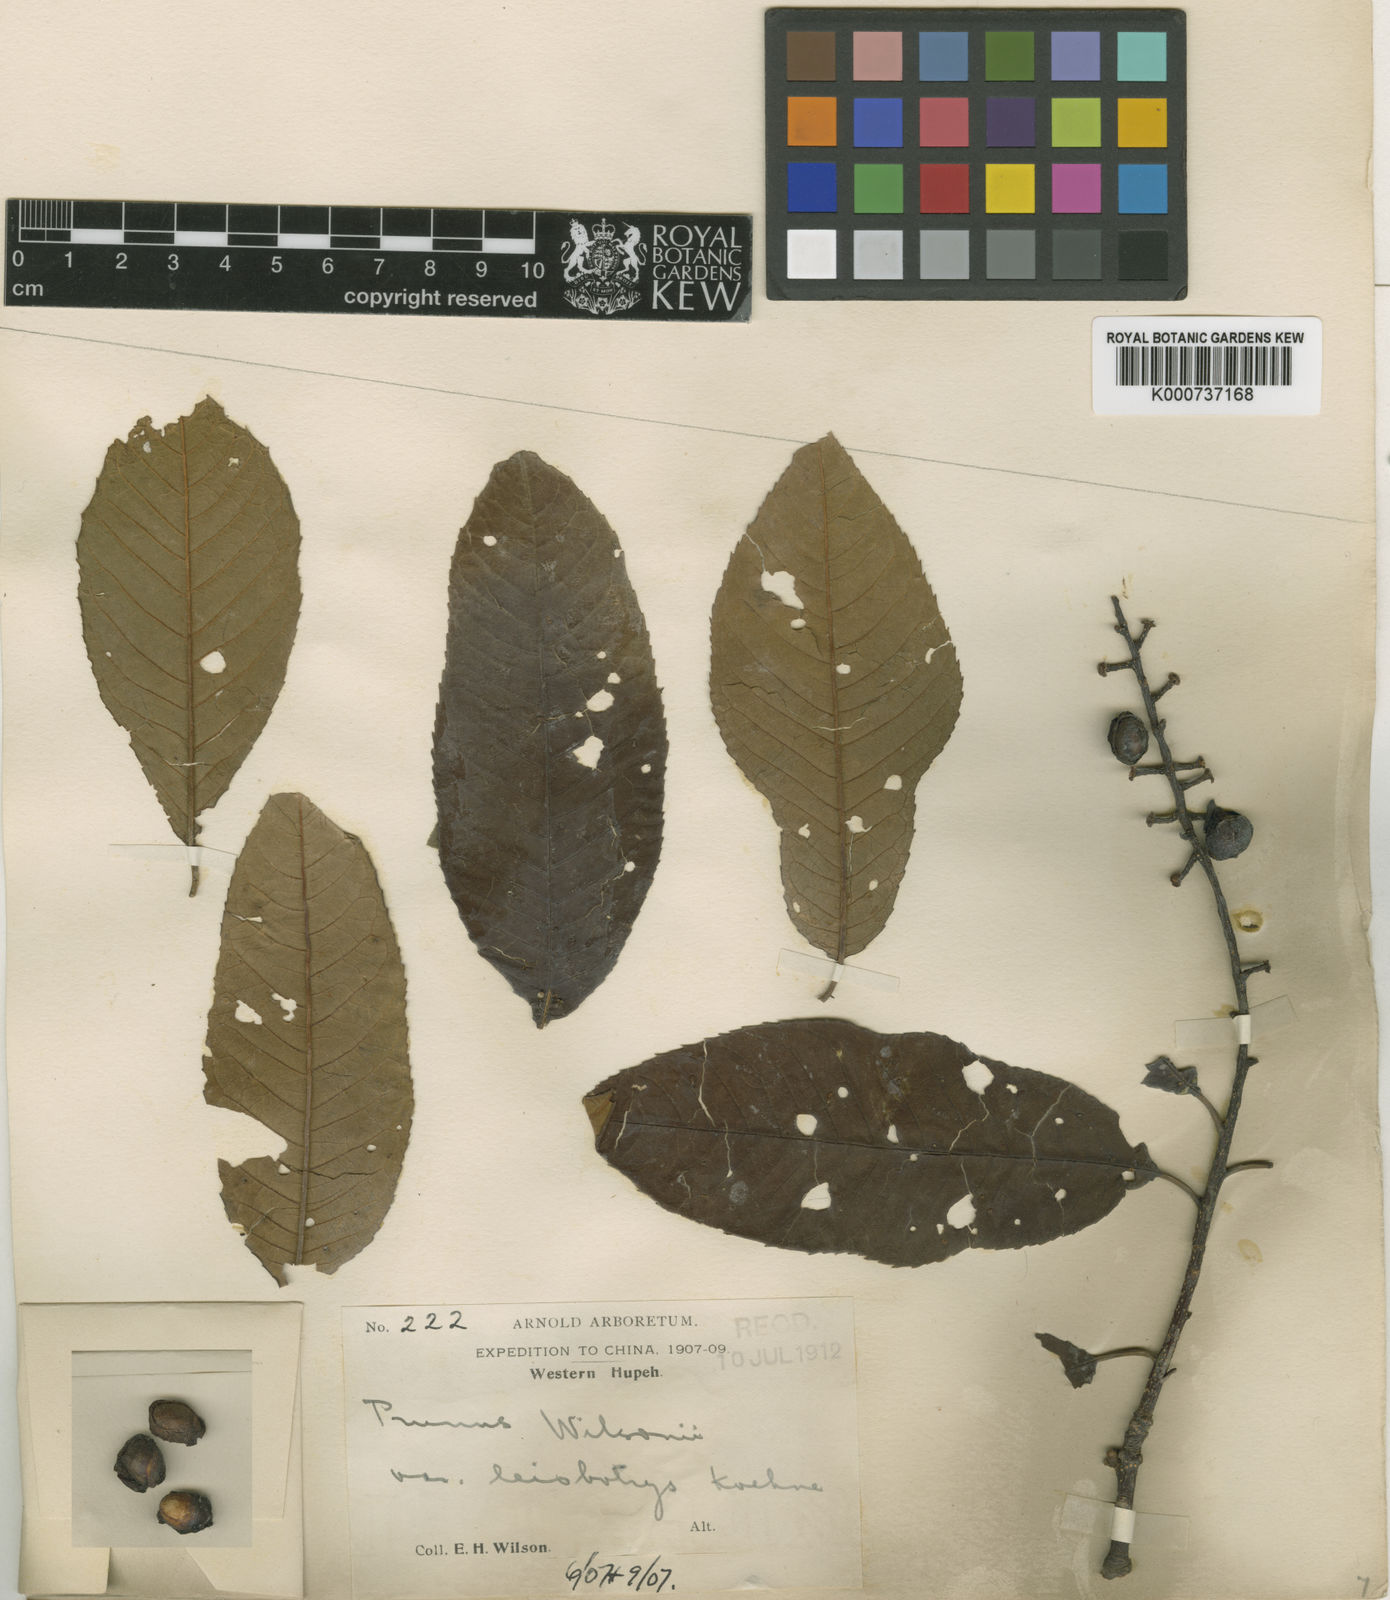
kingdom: Plantae
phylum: Tracheophyta
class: Magnoliopsida
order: Rosales
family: Rosaceae
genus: Prunus
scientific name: Prunus wilsonii
